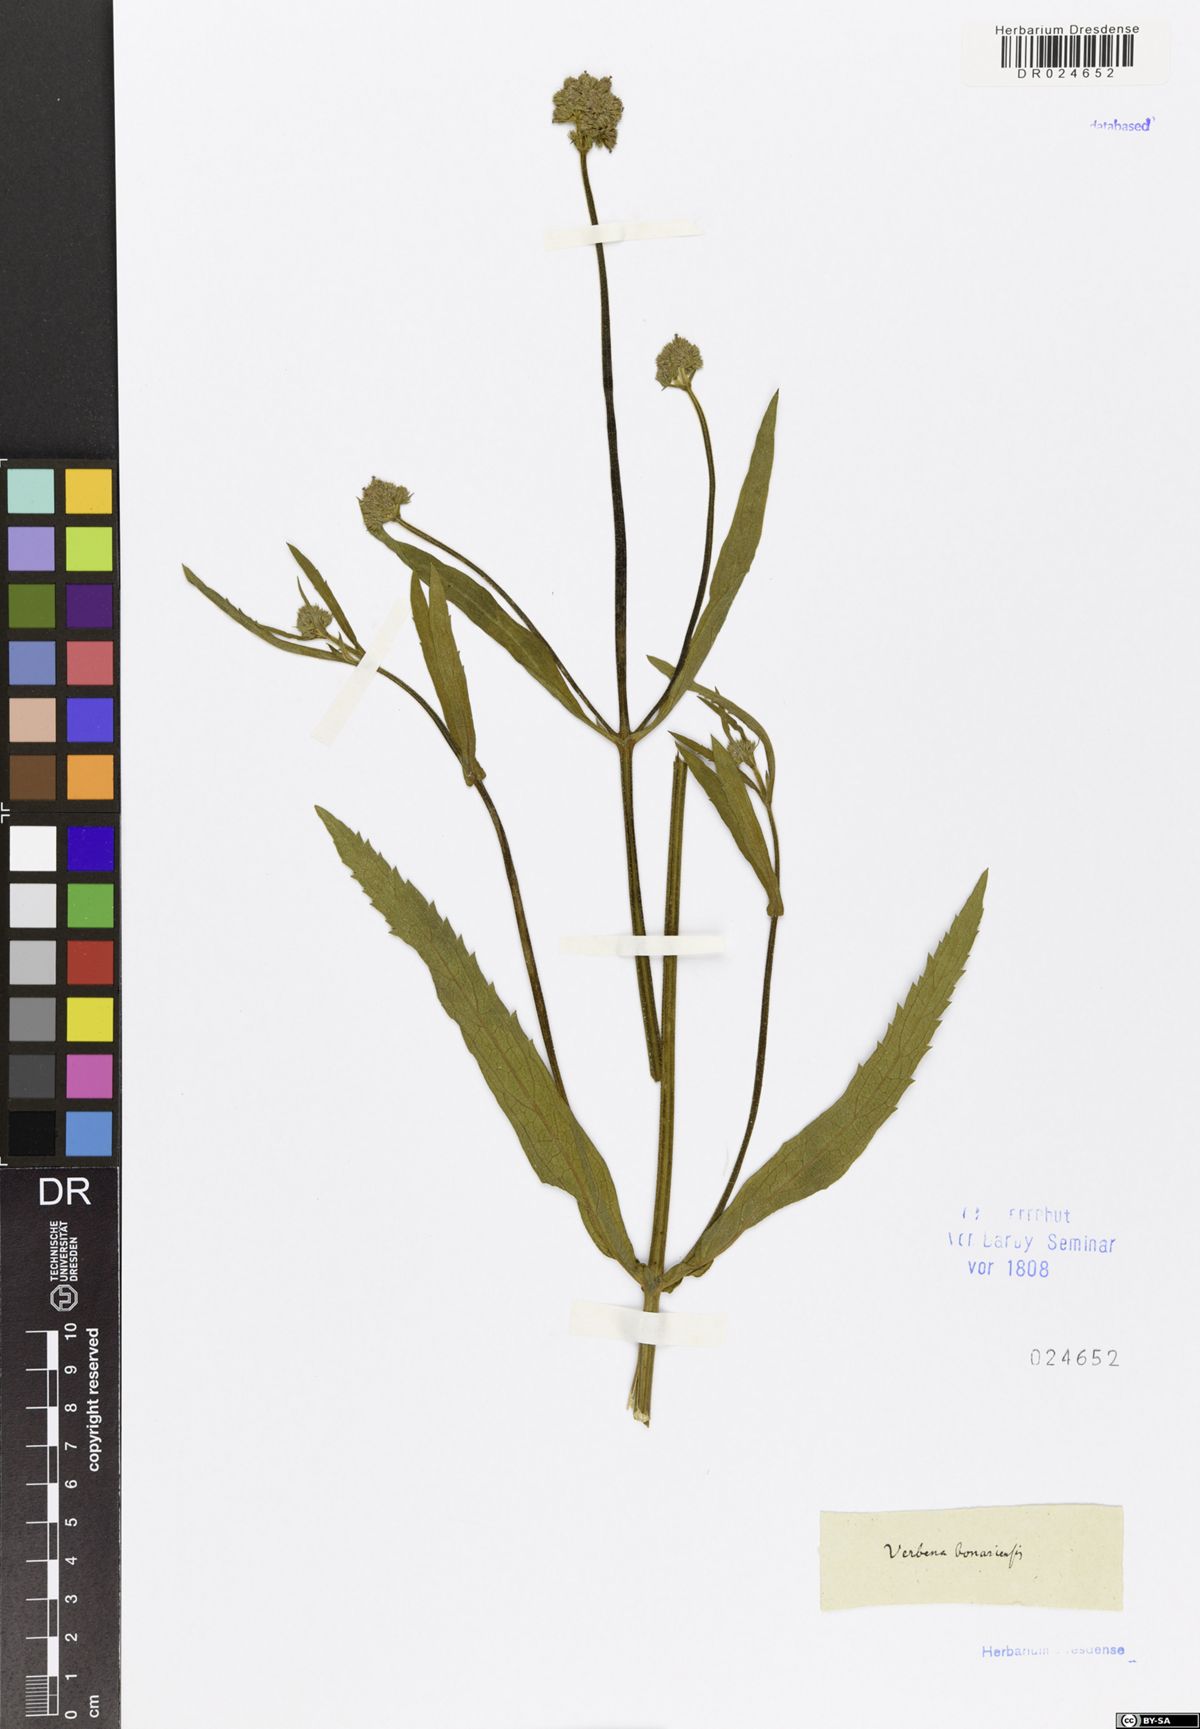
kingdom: Plantae
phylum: Tracheophyta
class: Magnoliopsida
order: Lamiales
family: Verbenaceae
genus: Verbena
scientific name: Verbena bonariensis
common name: Purpletop vervain
